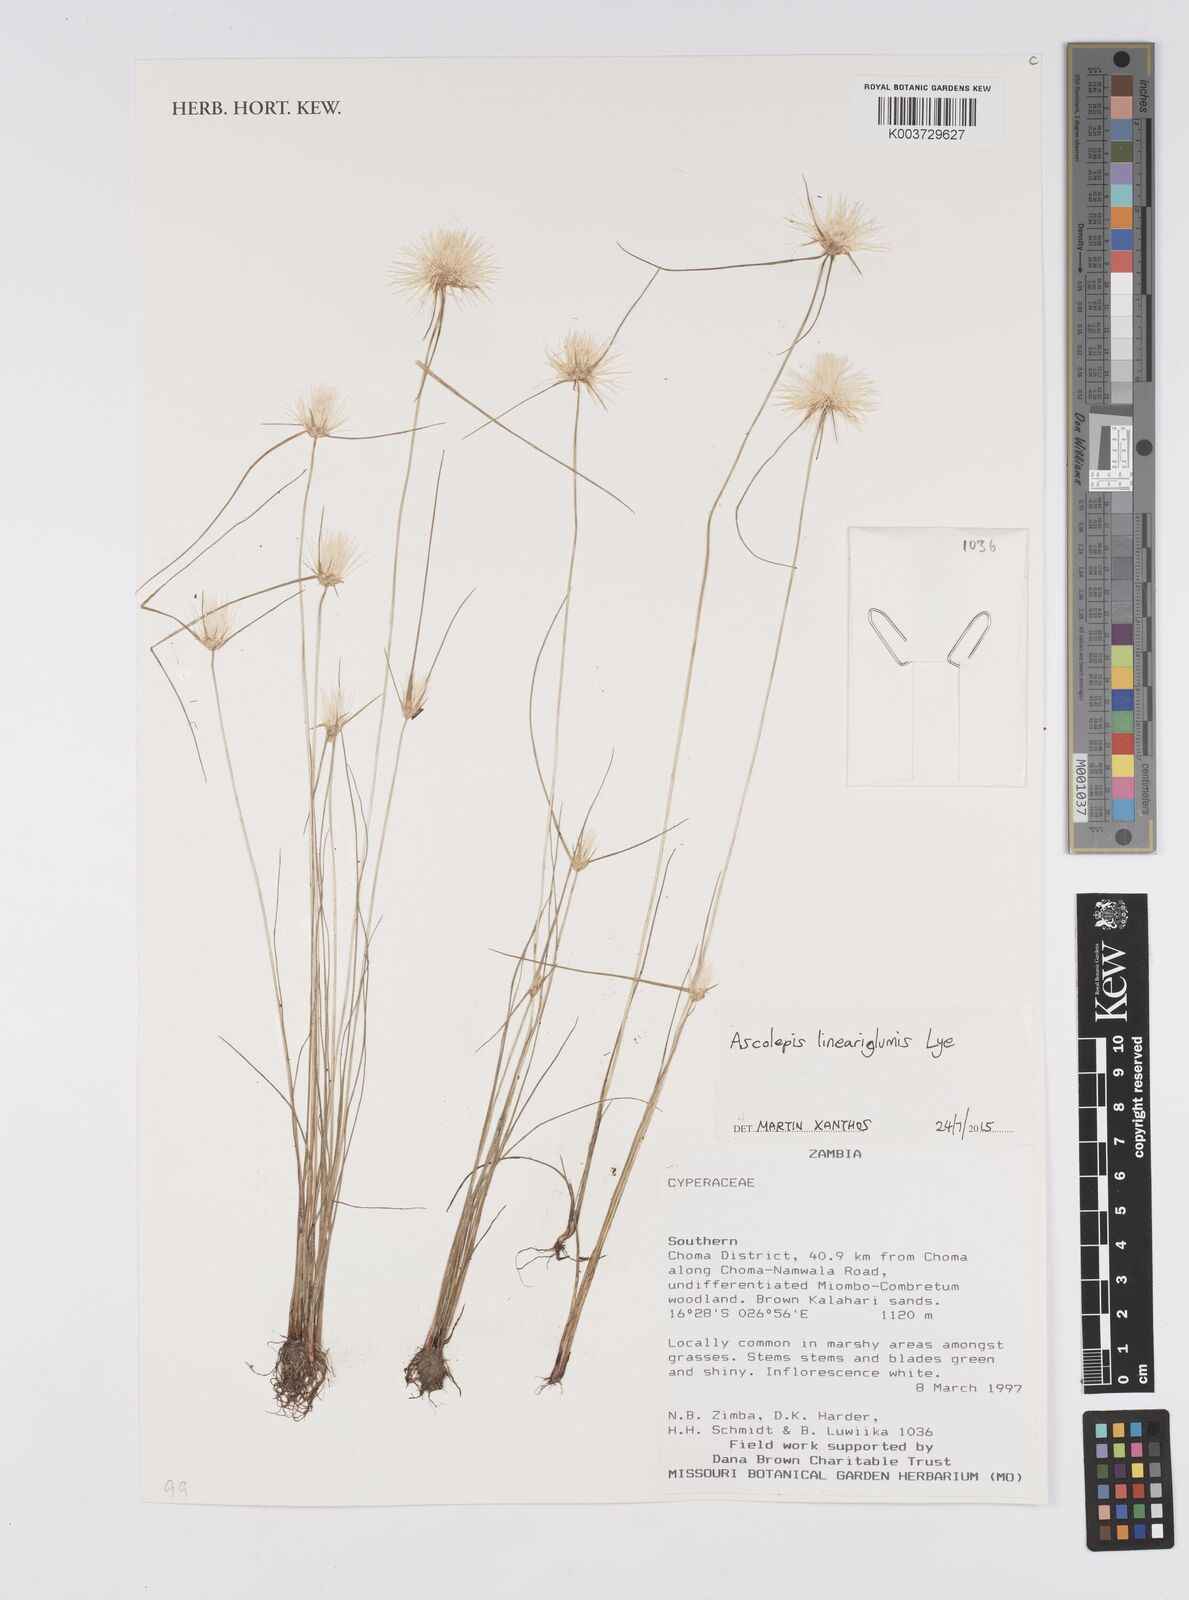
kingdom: Plantae
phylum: Tracheophyta
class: Liliopsida
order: Poales
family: Cyperaceae
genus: Cyperus
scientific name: Cyperus
